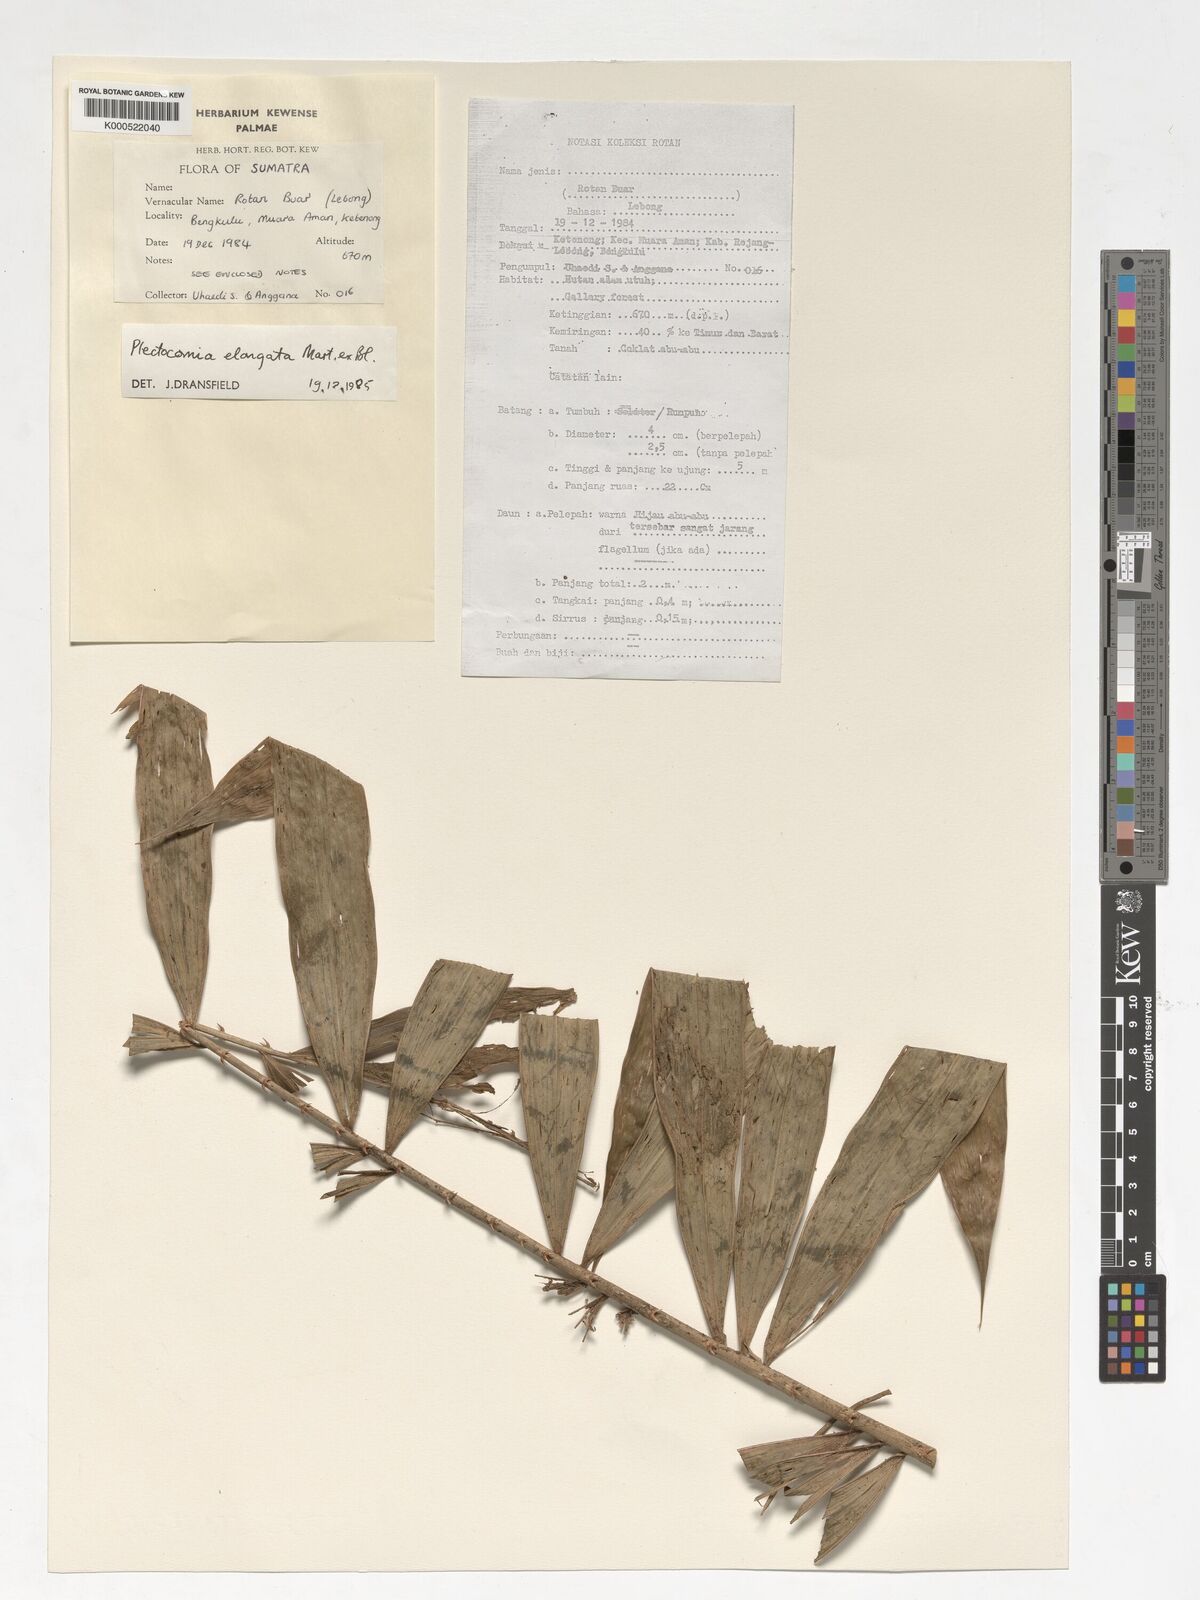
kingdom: Plantae
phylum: Tracheophyta
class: Liliopsida
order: Arecales
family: Arecaceae
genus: Plectocomia
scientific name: Plectocomia elongata
